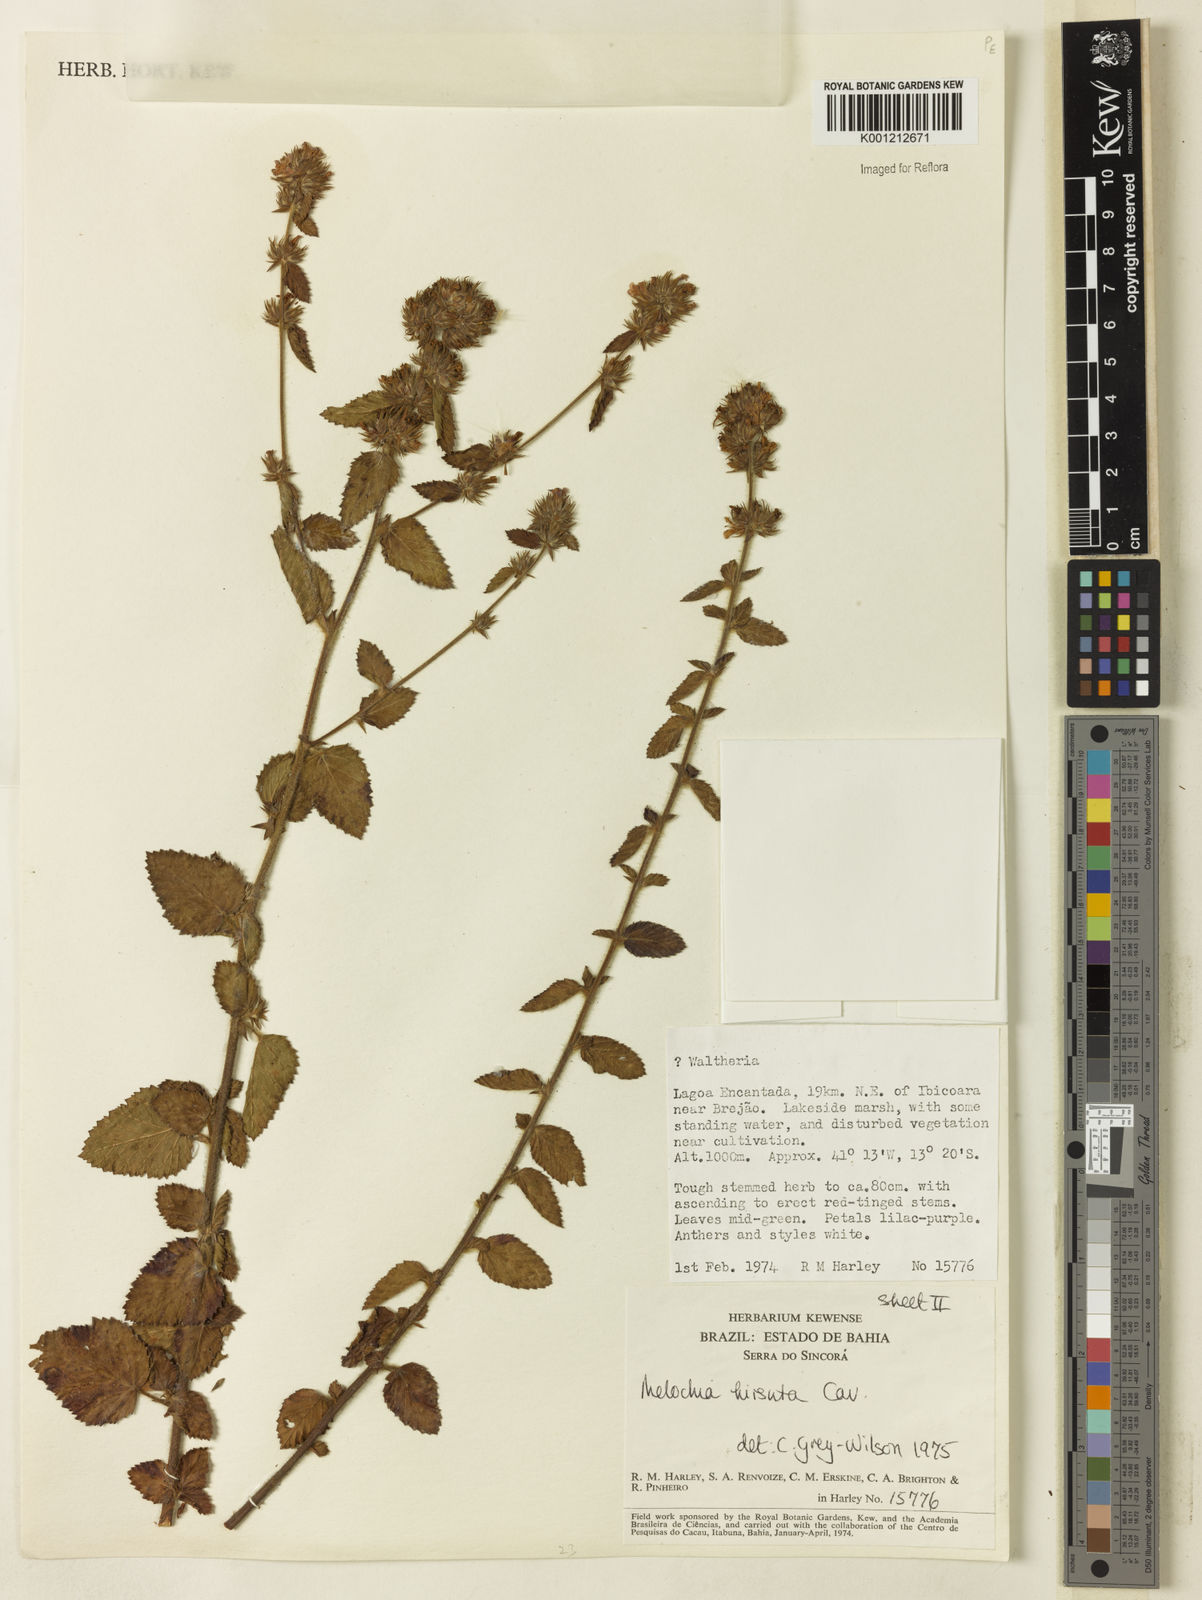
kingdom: Plantae
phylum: Tracheophyta
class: Magnoliopsida
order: Malvales
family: Malvaceae
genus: Melochia
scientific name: Melochia spicata
